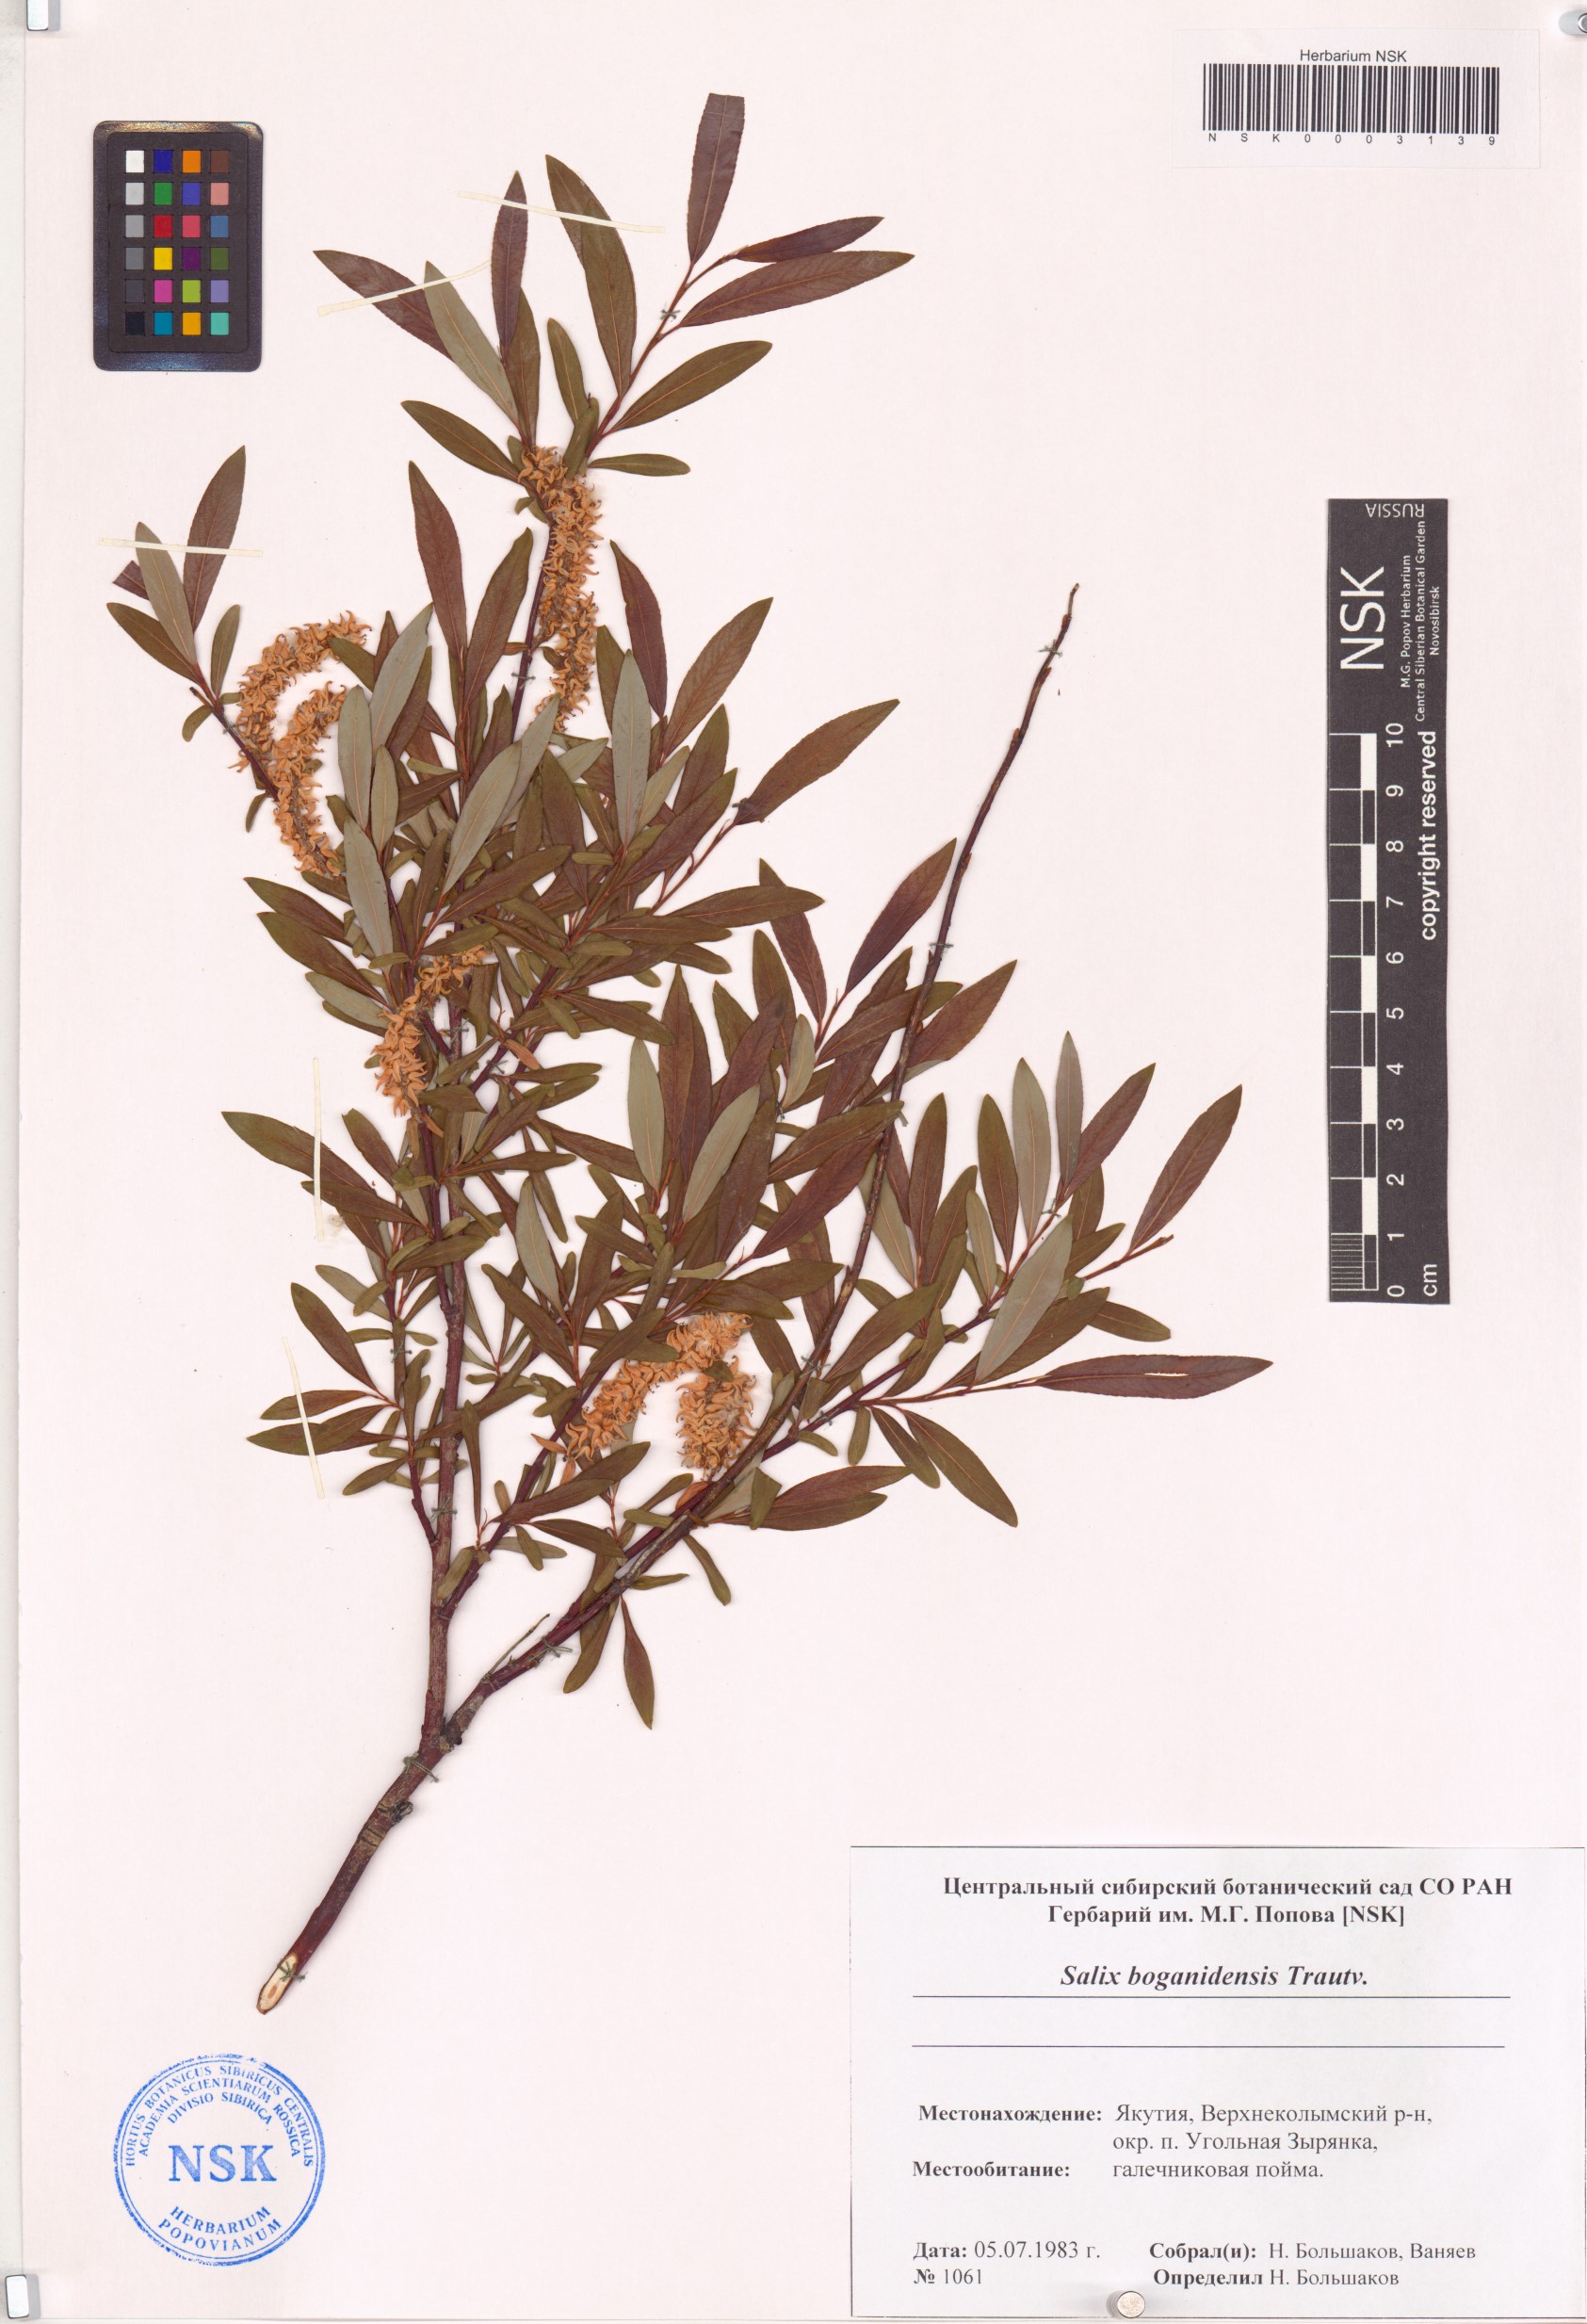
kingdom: Plantae
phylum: Tracheophyta
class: Magnoliopsida
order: Malpighiales
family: Salicaceae
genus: Salix
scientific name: Salix boganidensis
